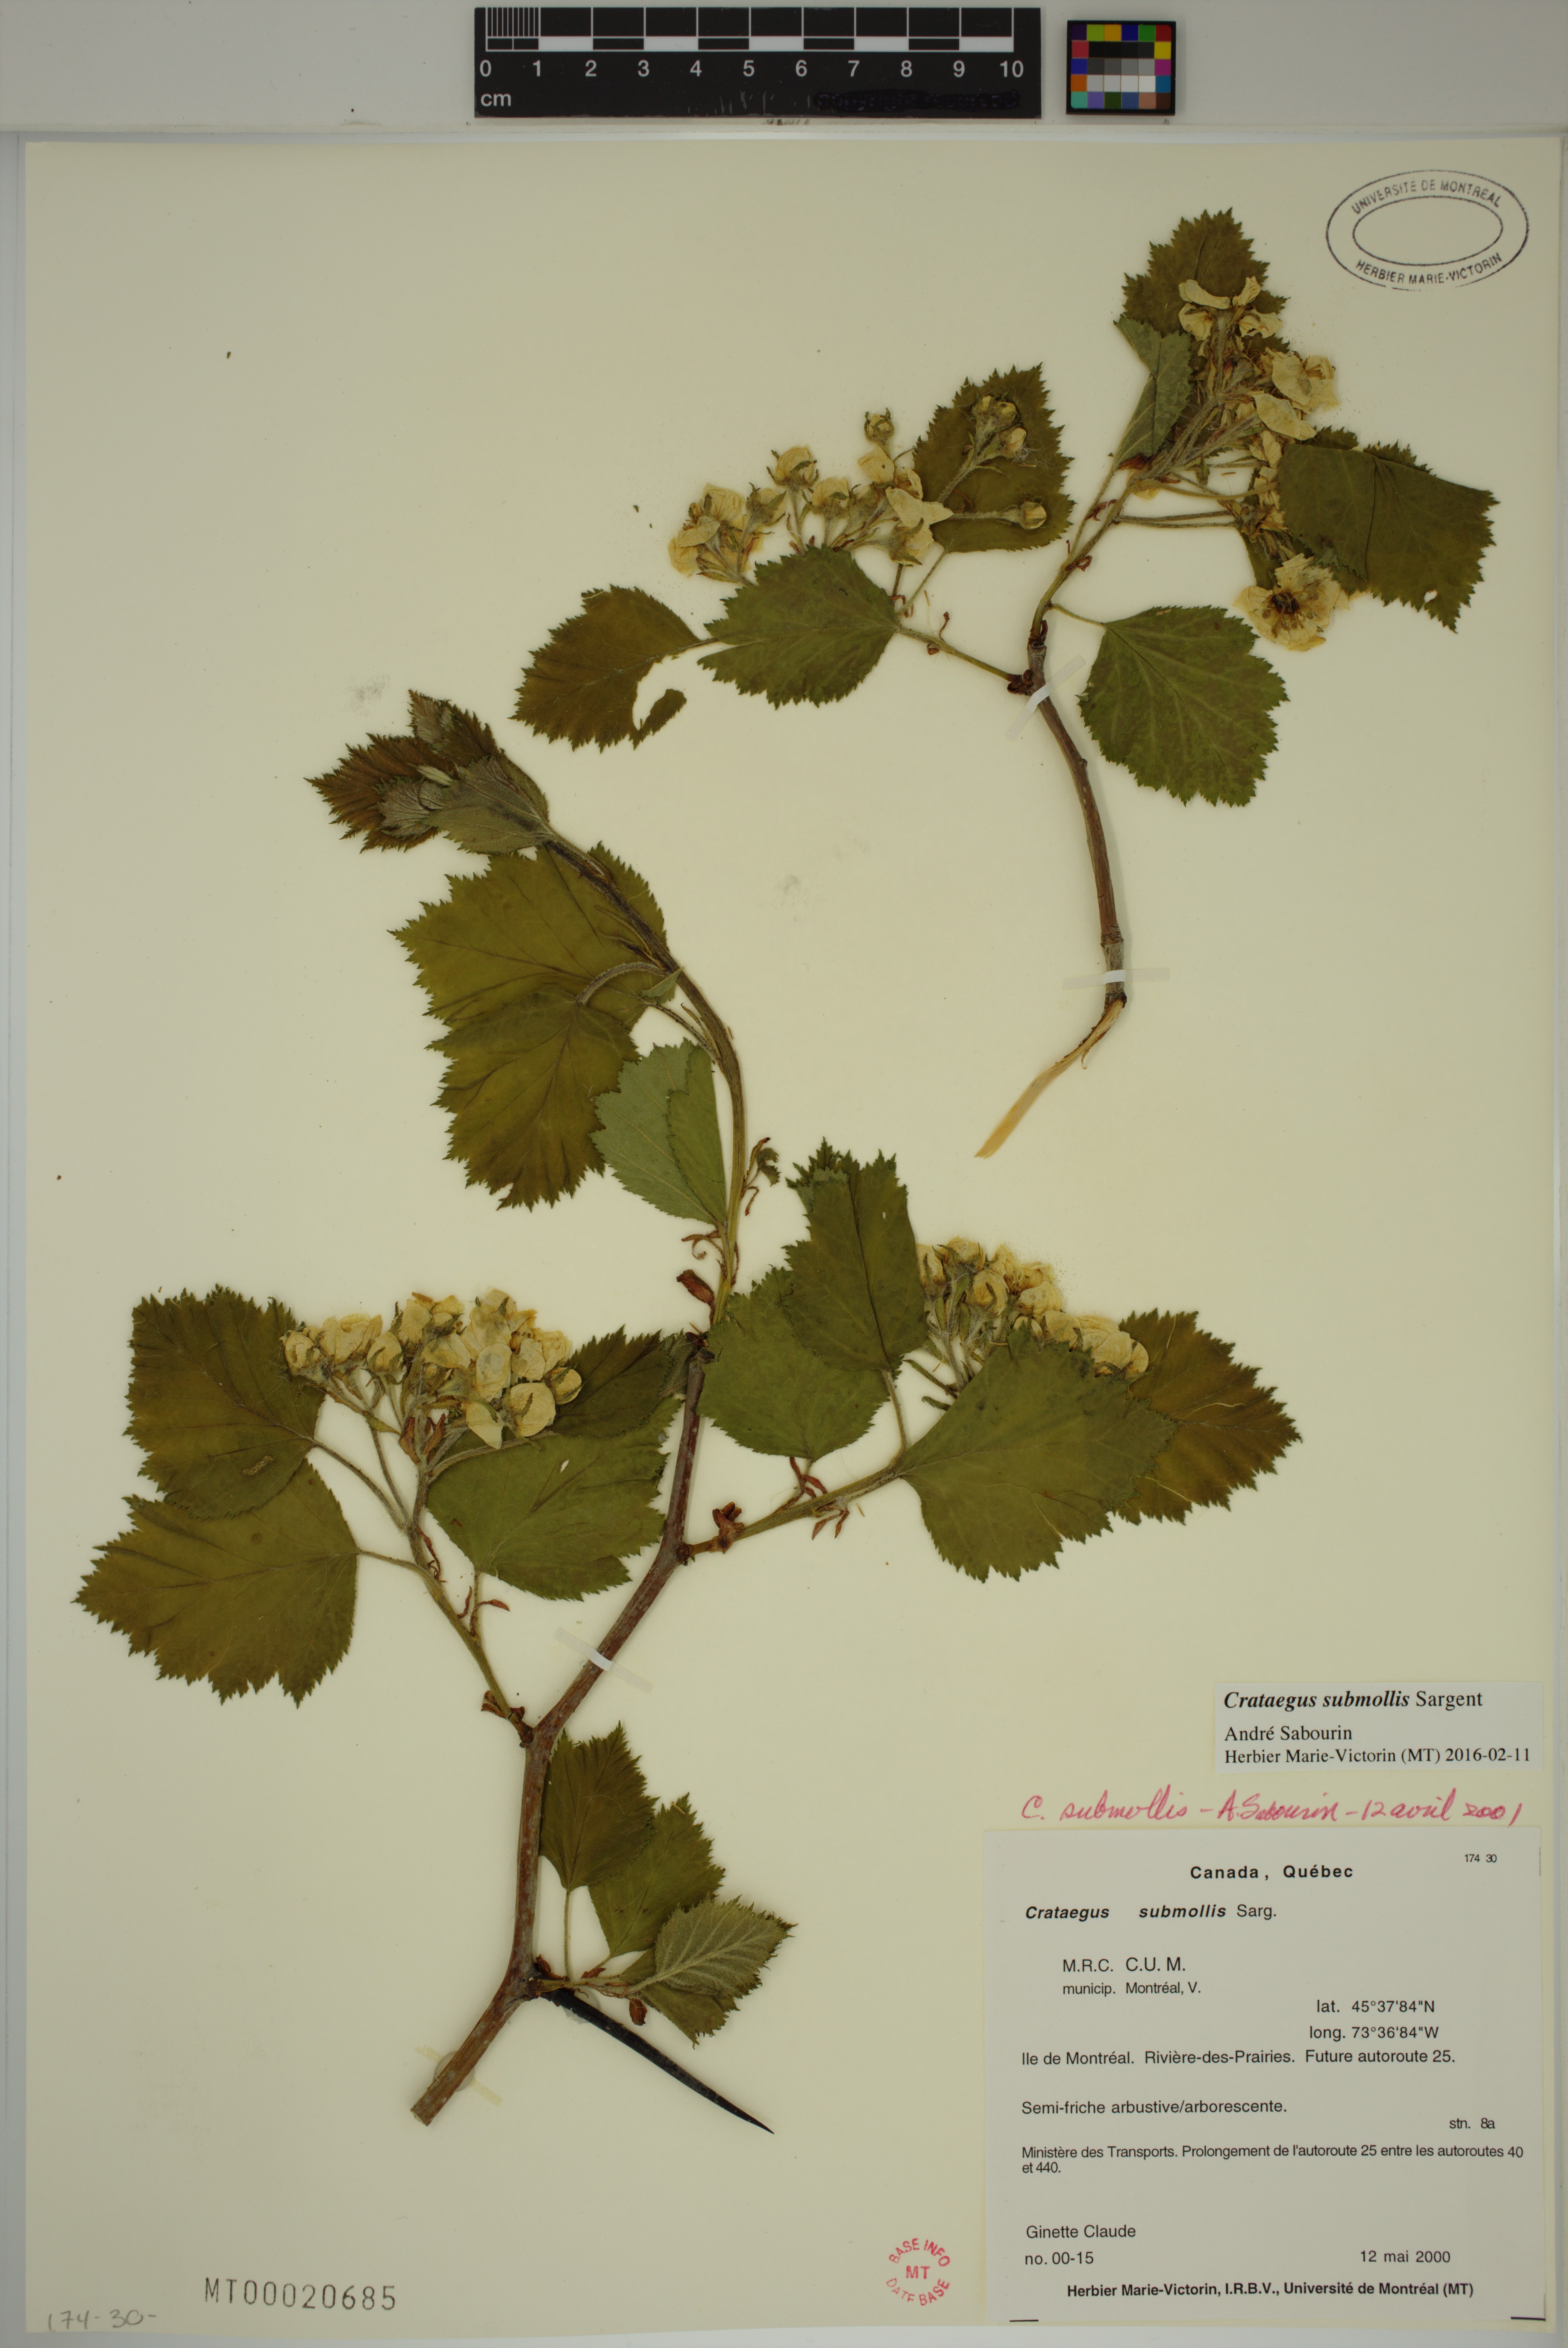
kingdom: Plantae
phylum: Tracheophyta
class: Magnoliopsida
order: Rosales
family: Rosaceae
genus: Crataegus
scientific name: Crataegus submollis
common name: Hairy cockspurthorn
